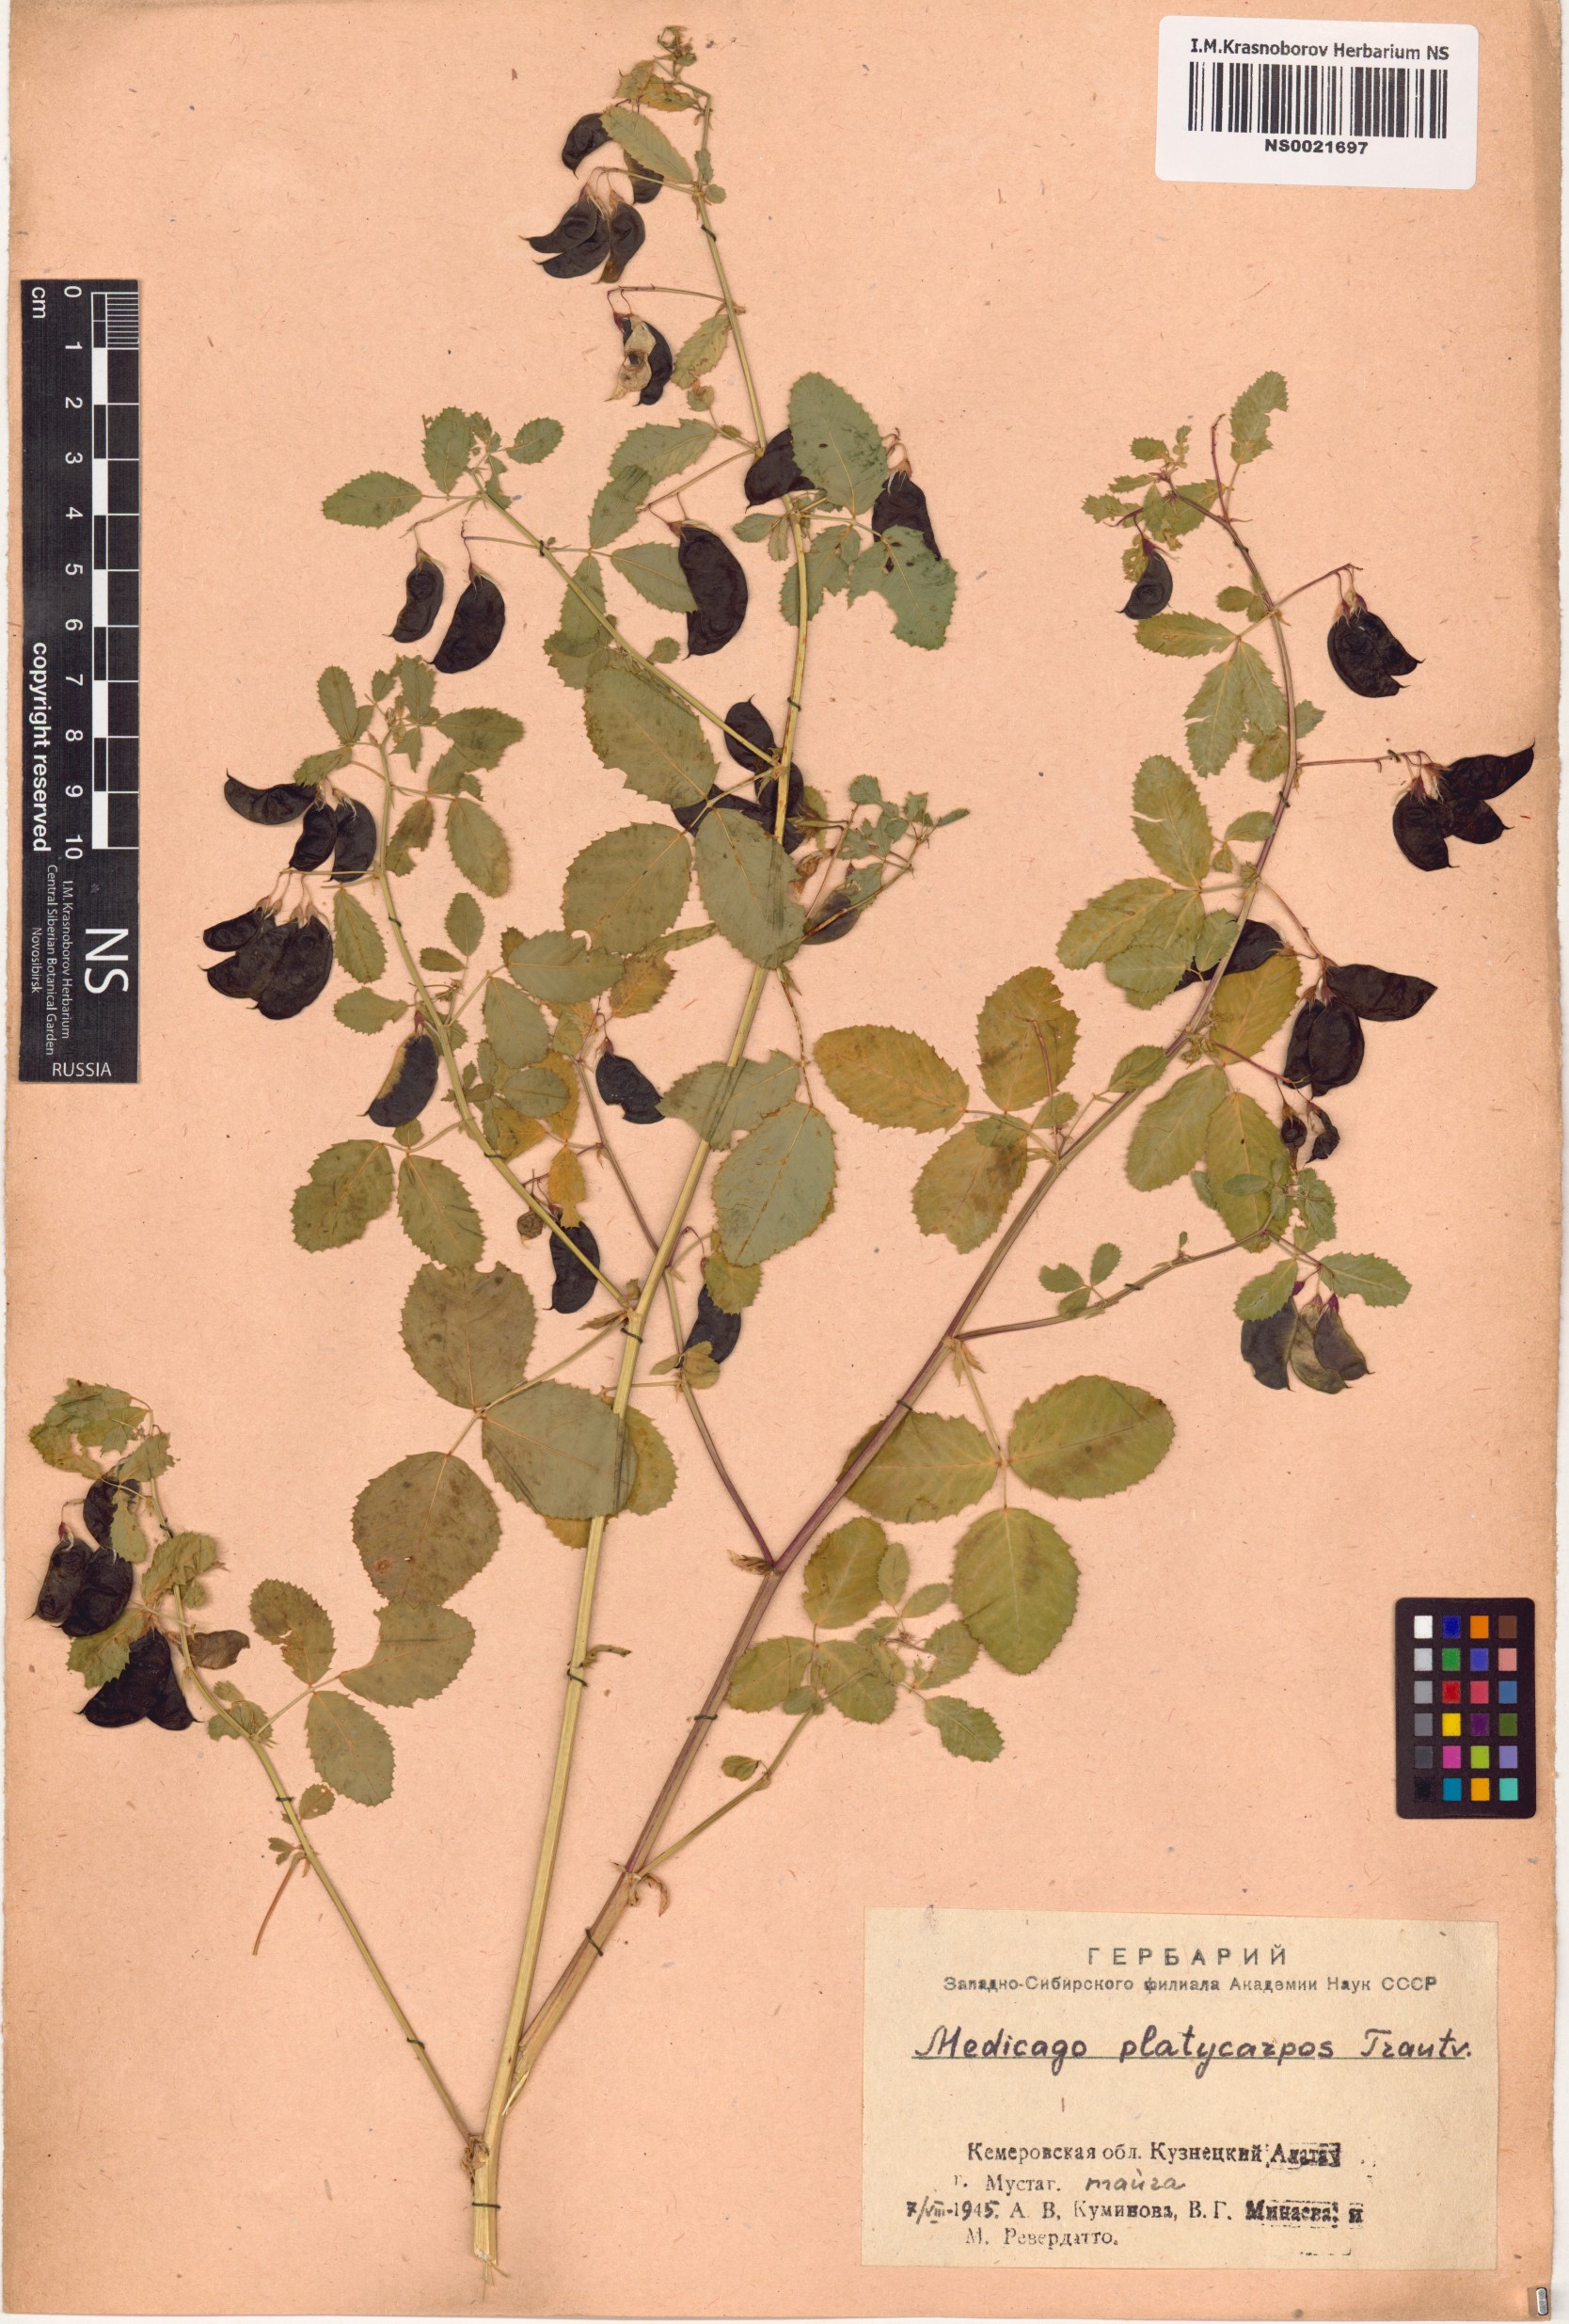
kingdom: Plantae
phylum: Tracheophyta
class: Magnoliopsida
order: Fabales
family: Fabaceae
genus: Medicago
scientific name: Medicago platycarpos
